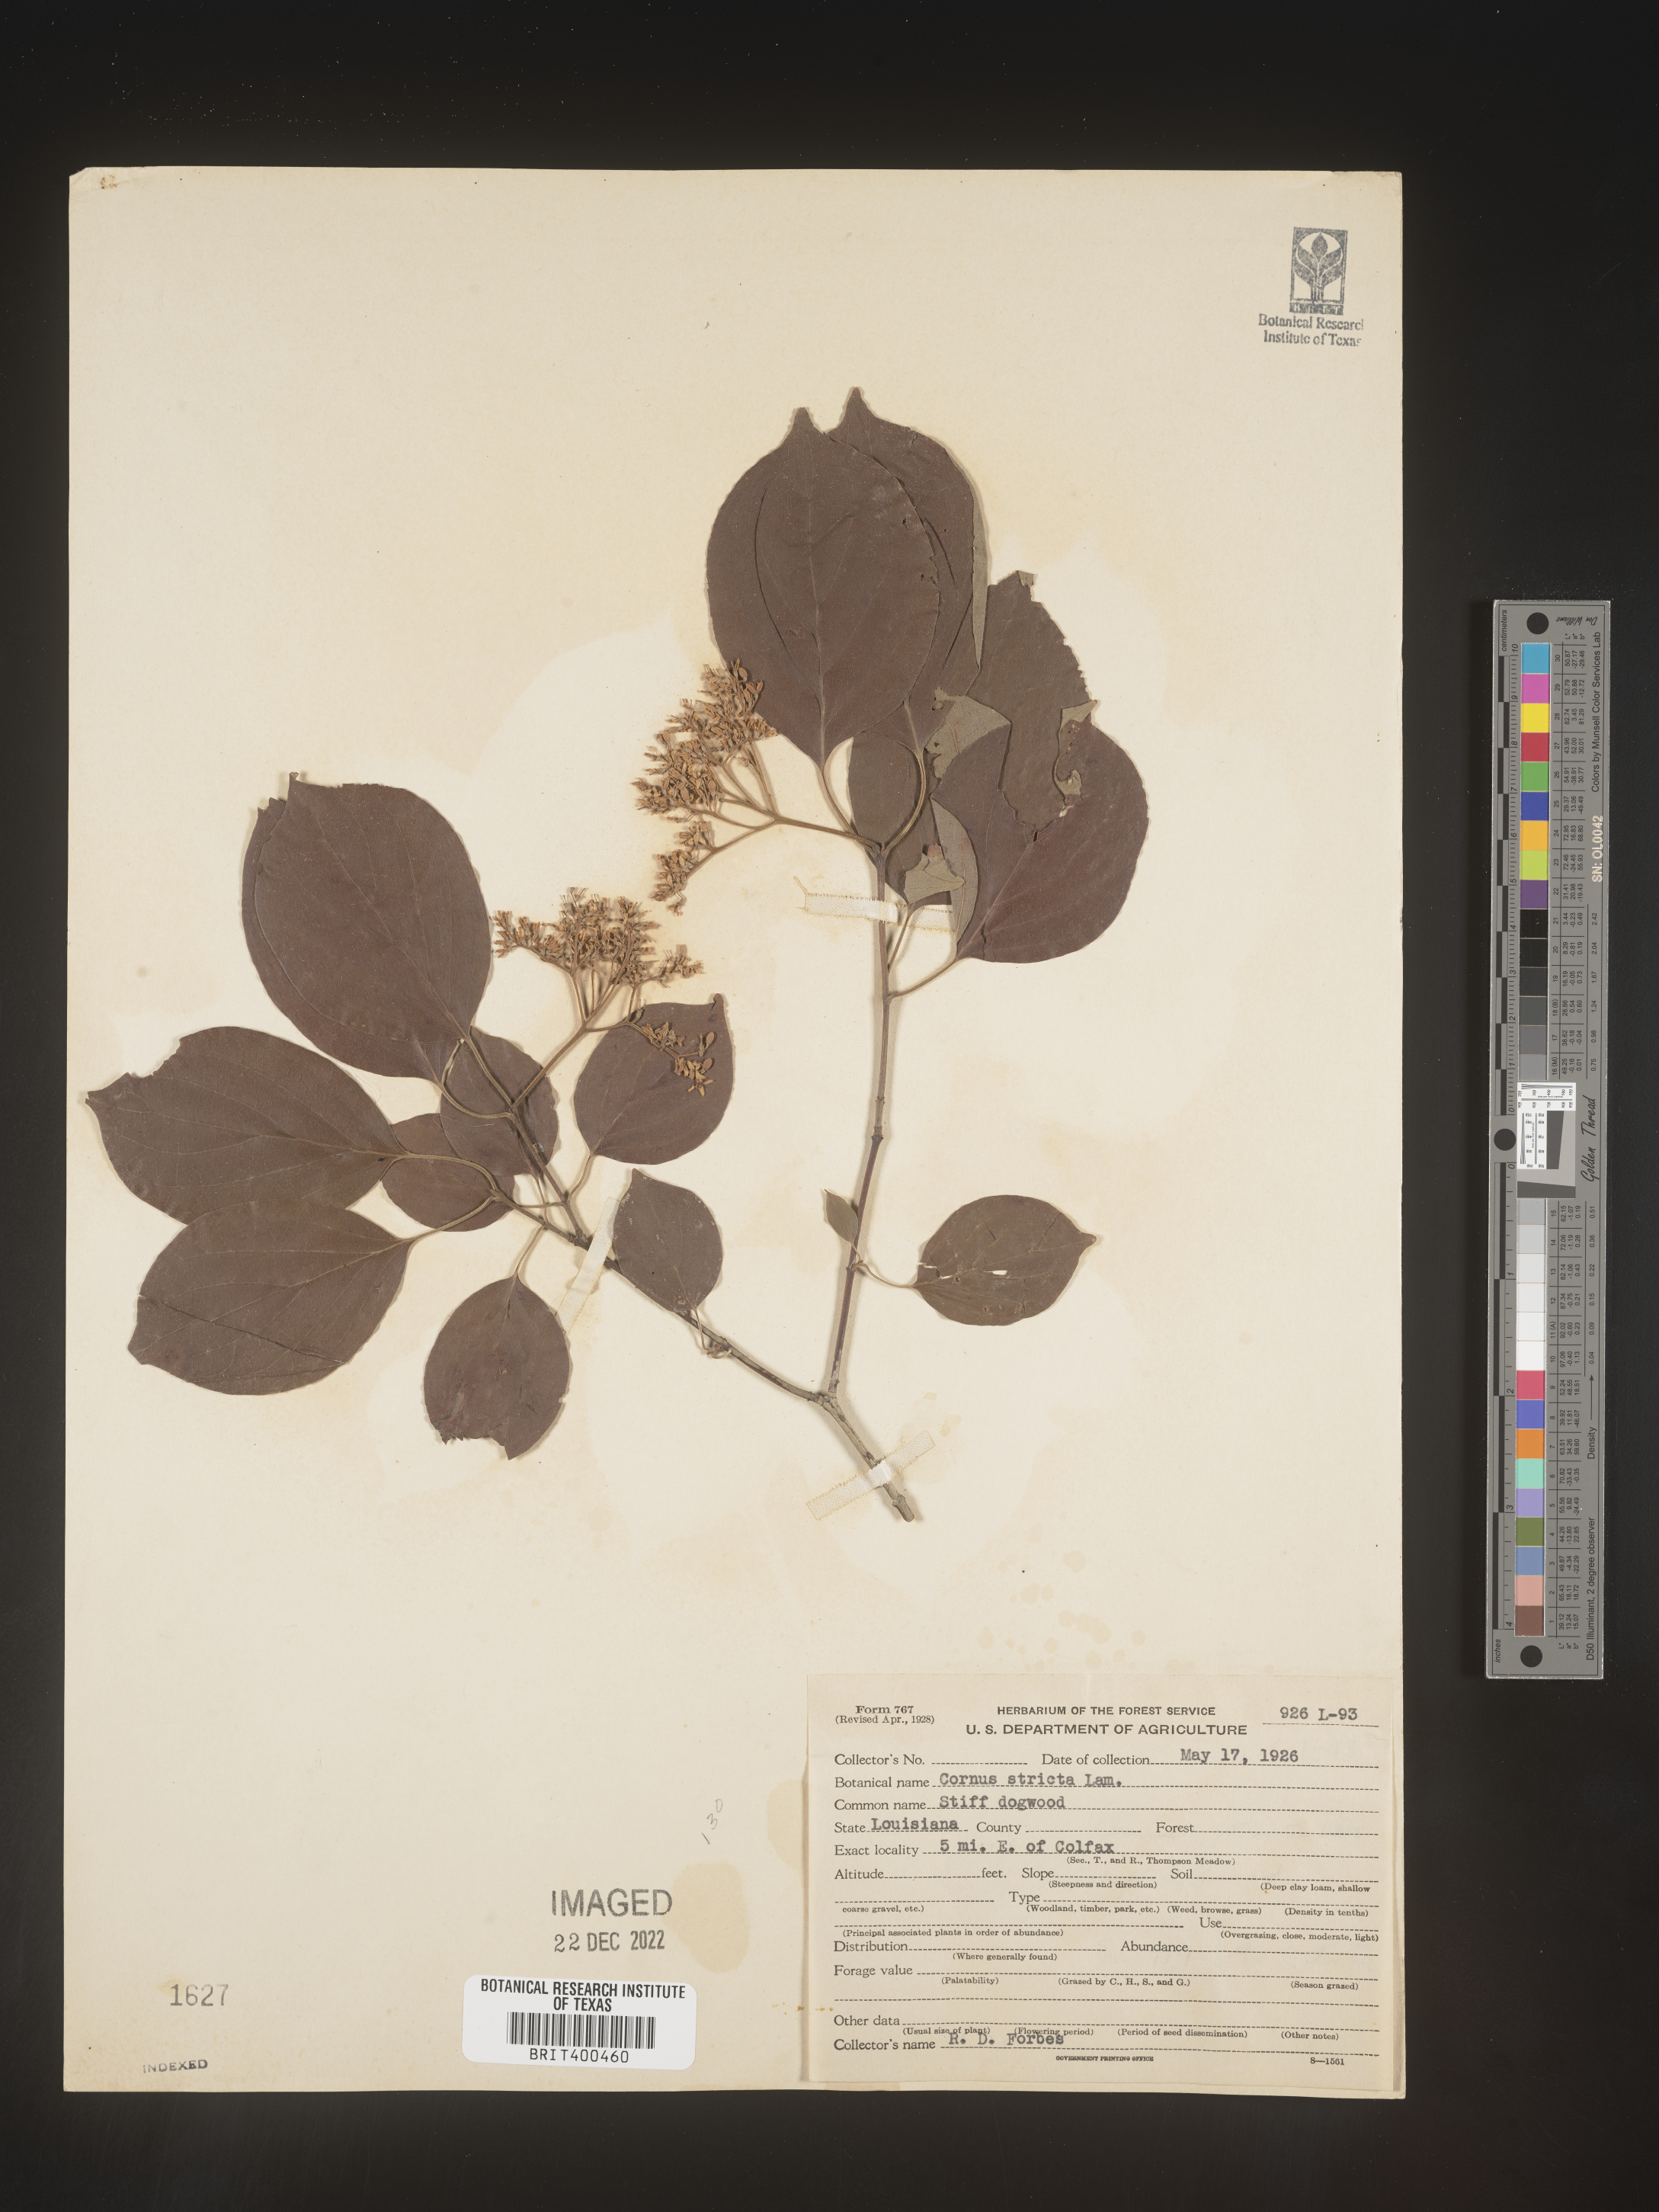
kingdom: Plantae
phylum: Tracheophyta
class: Magnoliopsida
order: Cornales
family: Cornaceae
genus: Cornus
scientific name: Cornus foemina
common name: Swamp dogwood
